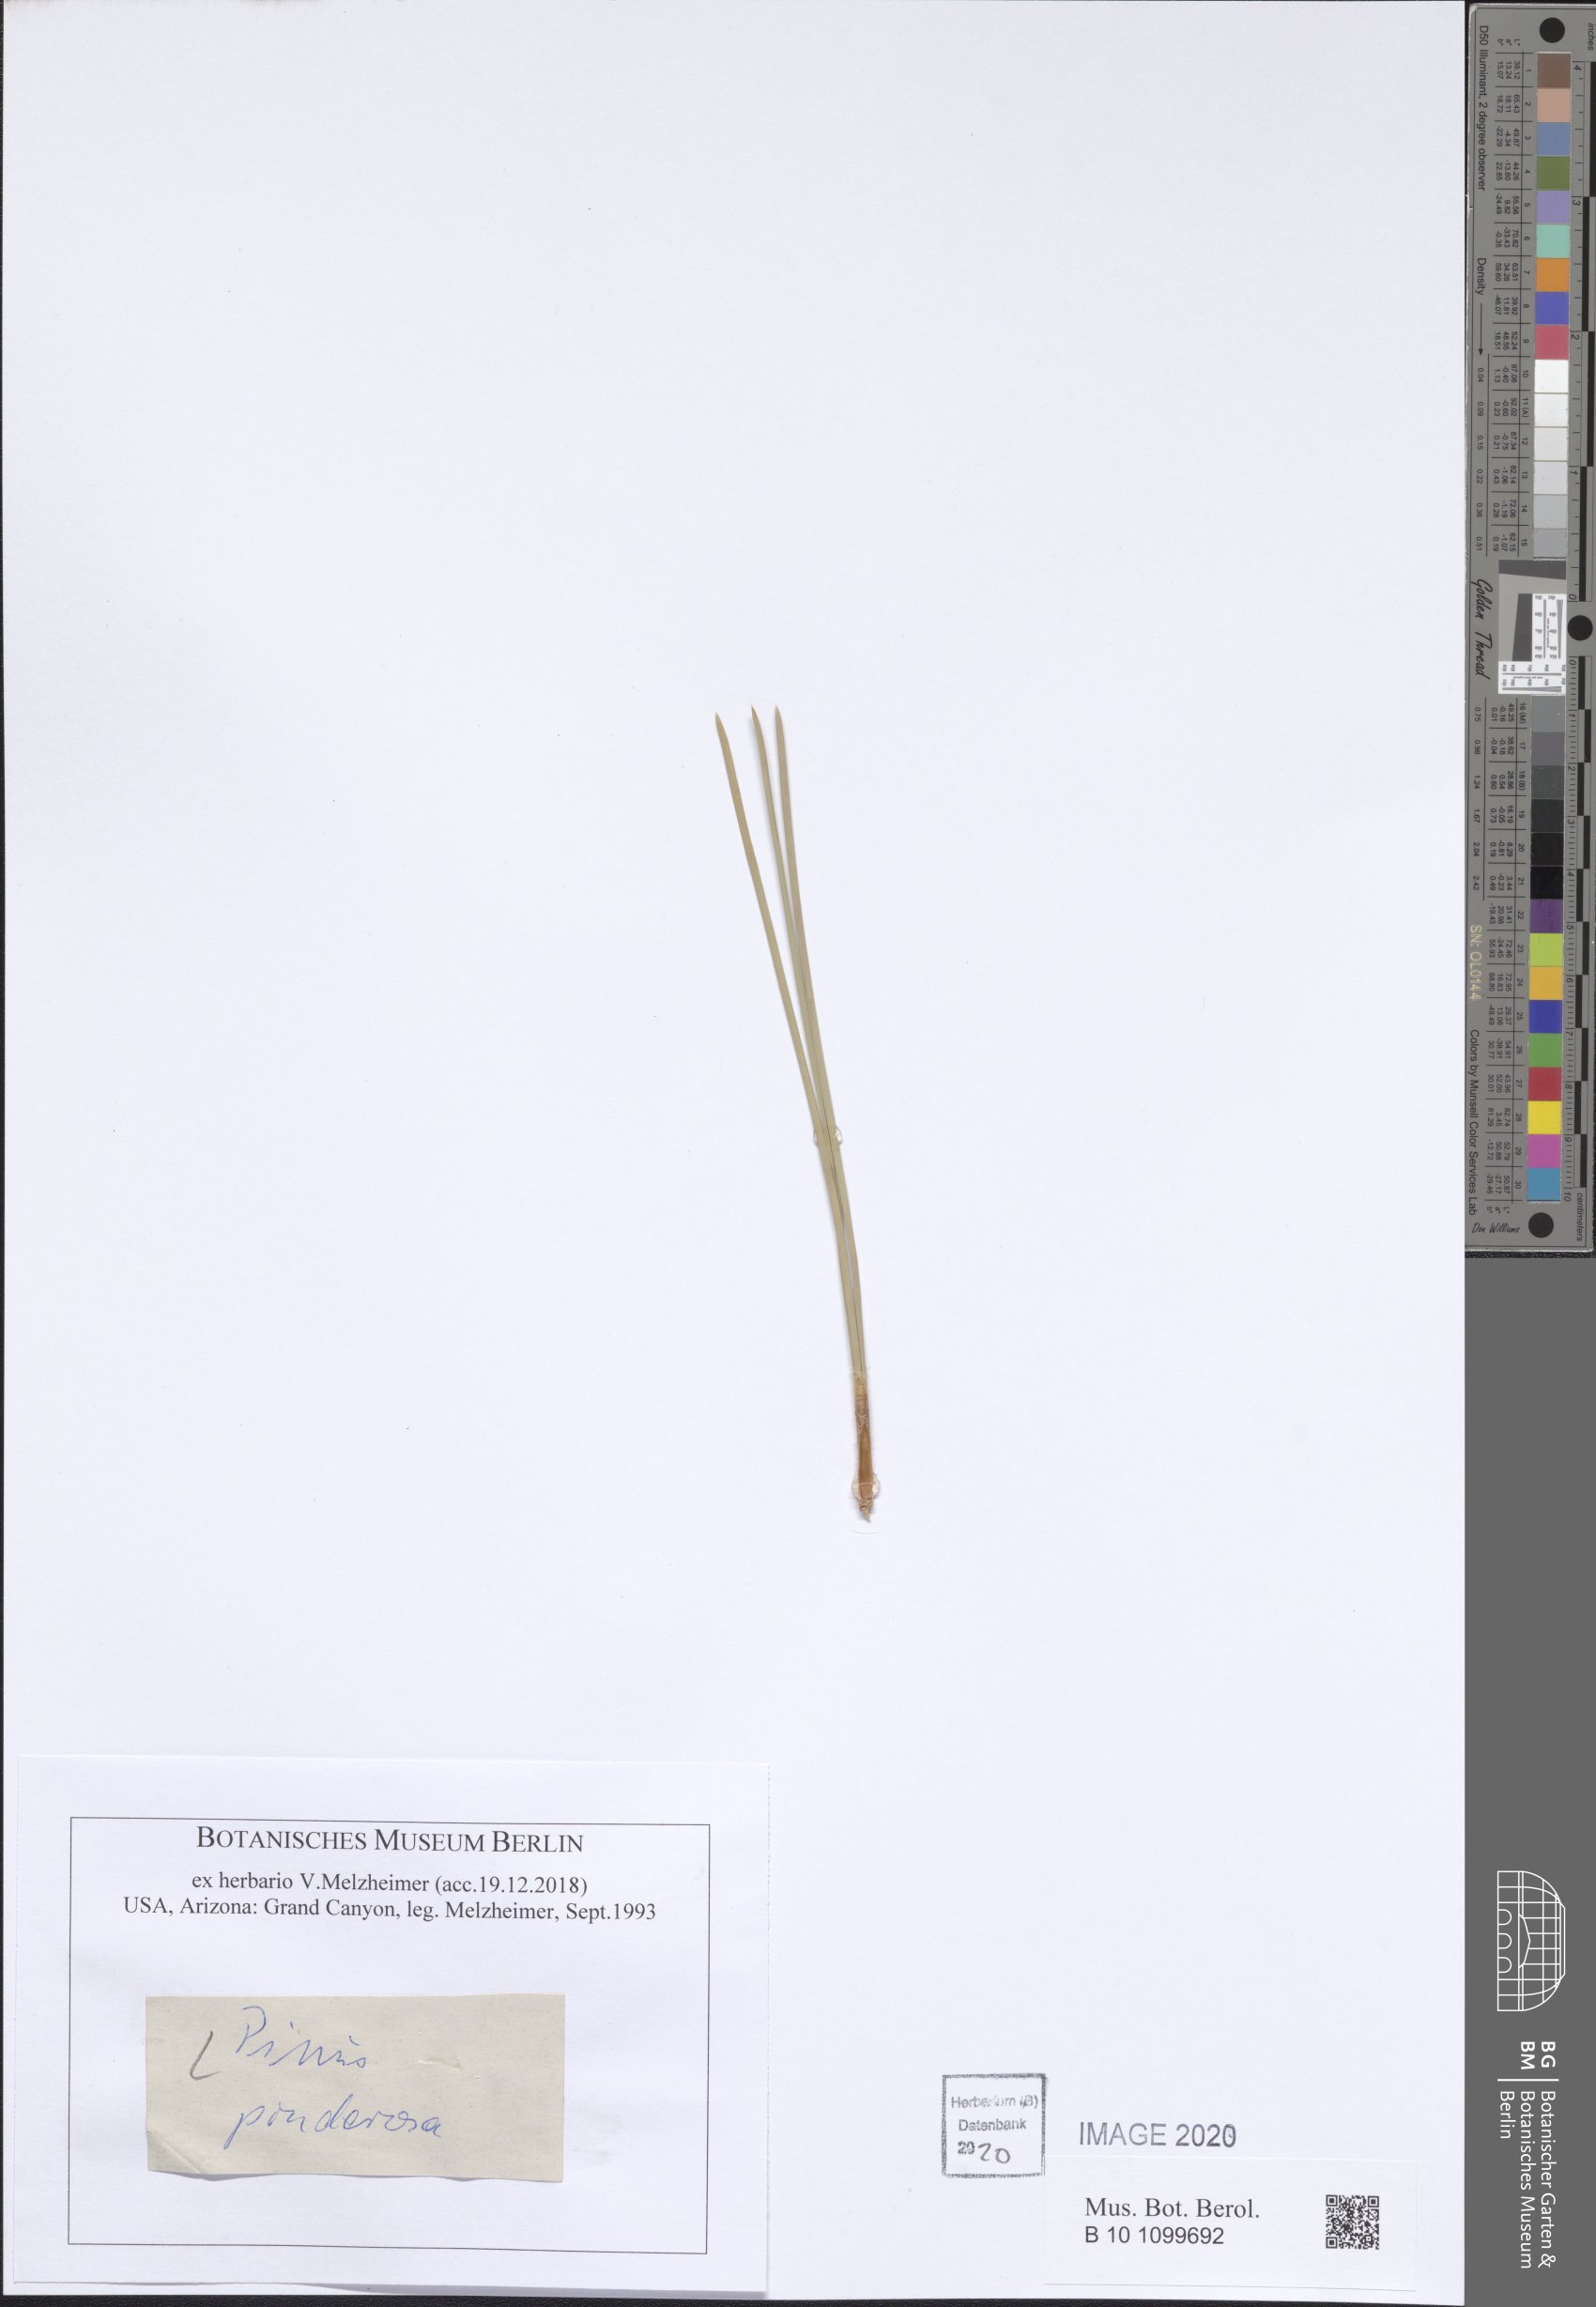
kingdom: Plantae
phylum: Tracheophyta
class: Pinopsida
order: Pinales
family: Pinaceae
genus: Pinus
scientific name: Pinus ponderosa
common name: Western yellow-pine
